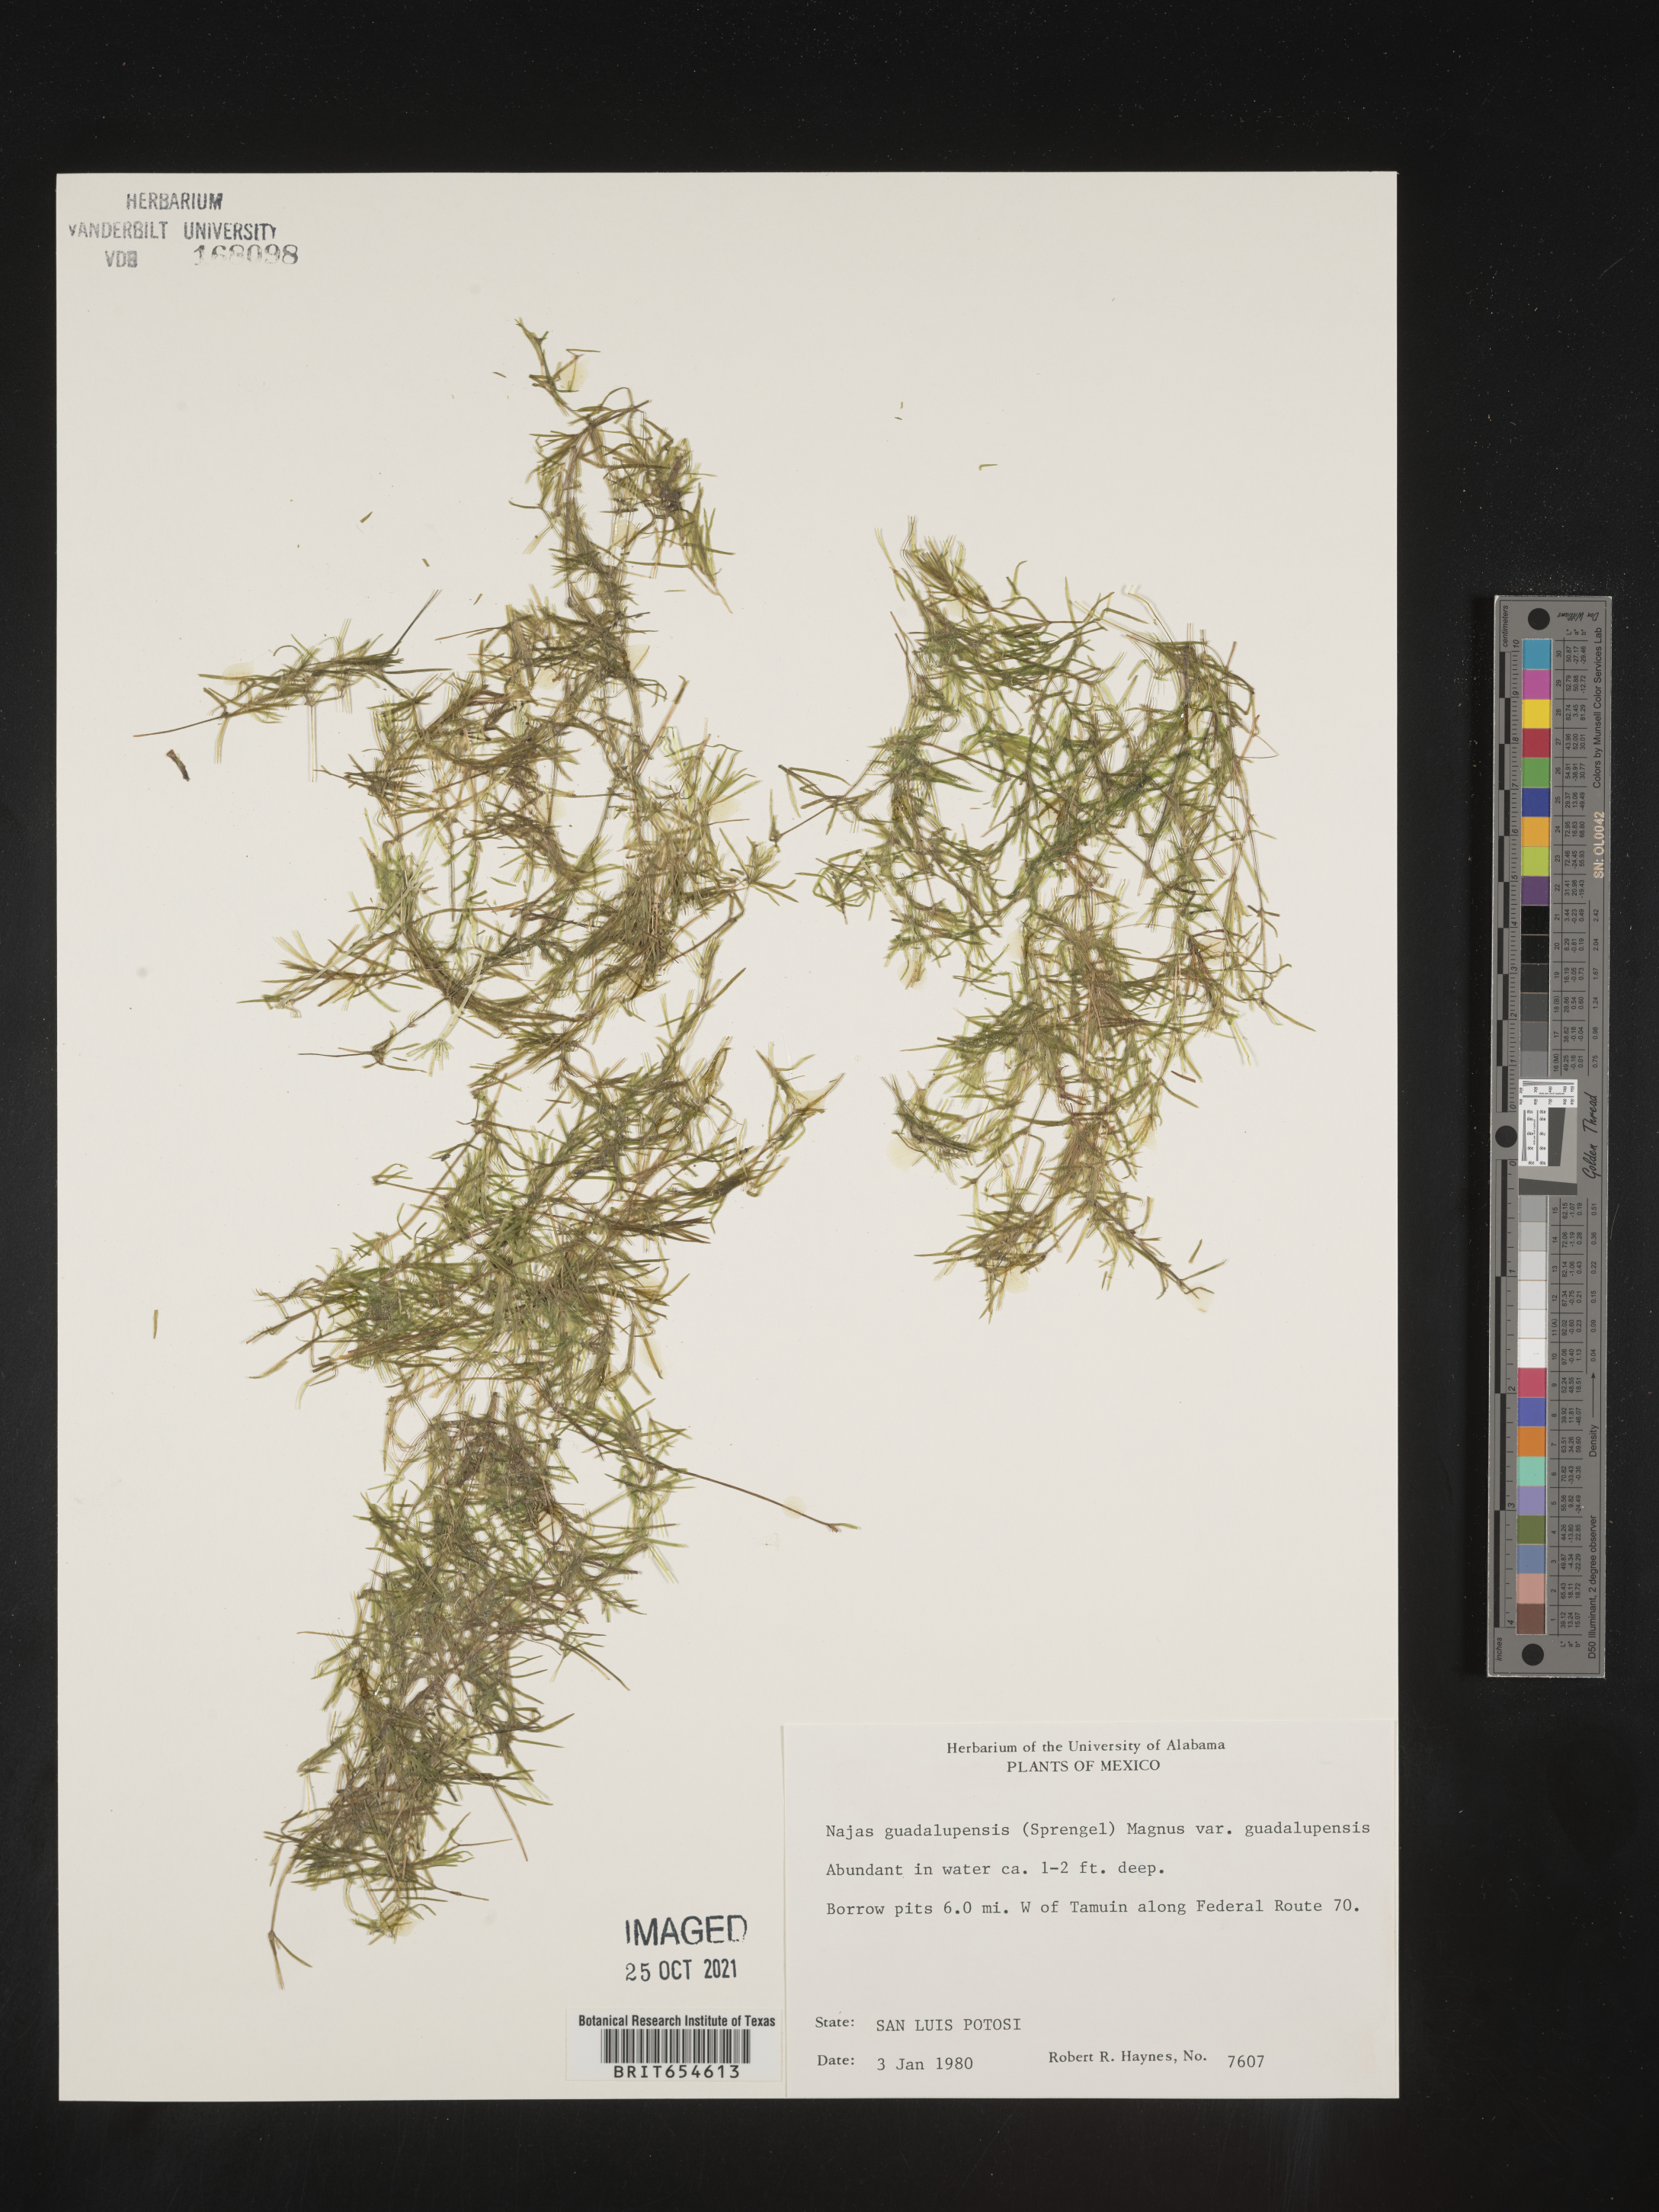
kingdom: Plantae
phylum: Tracheophyta
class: Liliopsida
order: Alismatales
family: Hydrocharitaceae
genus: Najas
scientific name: Najas
